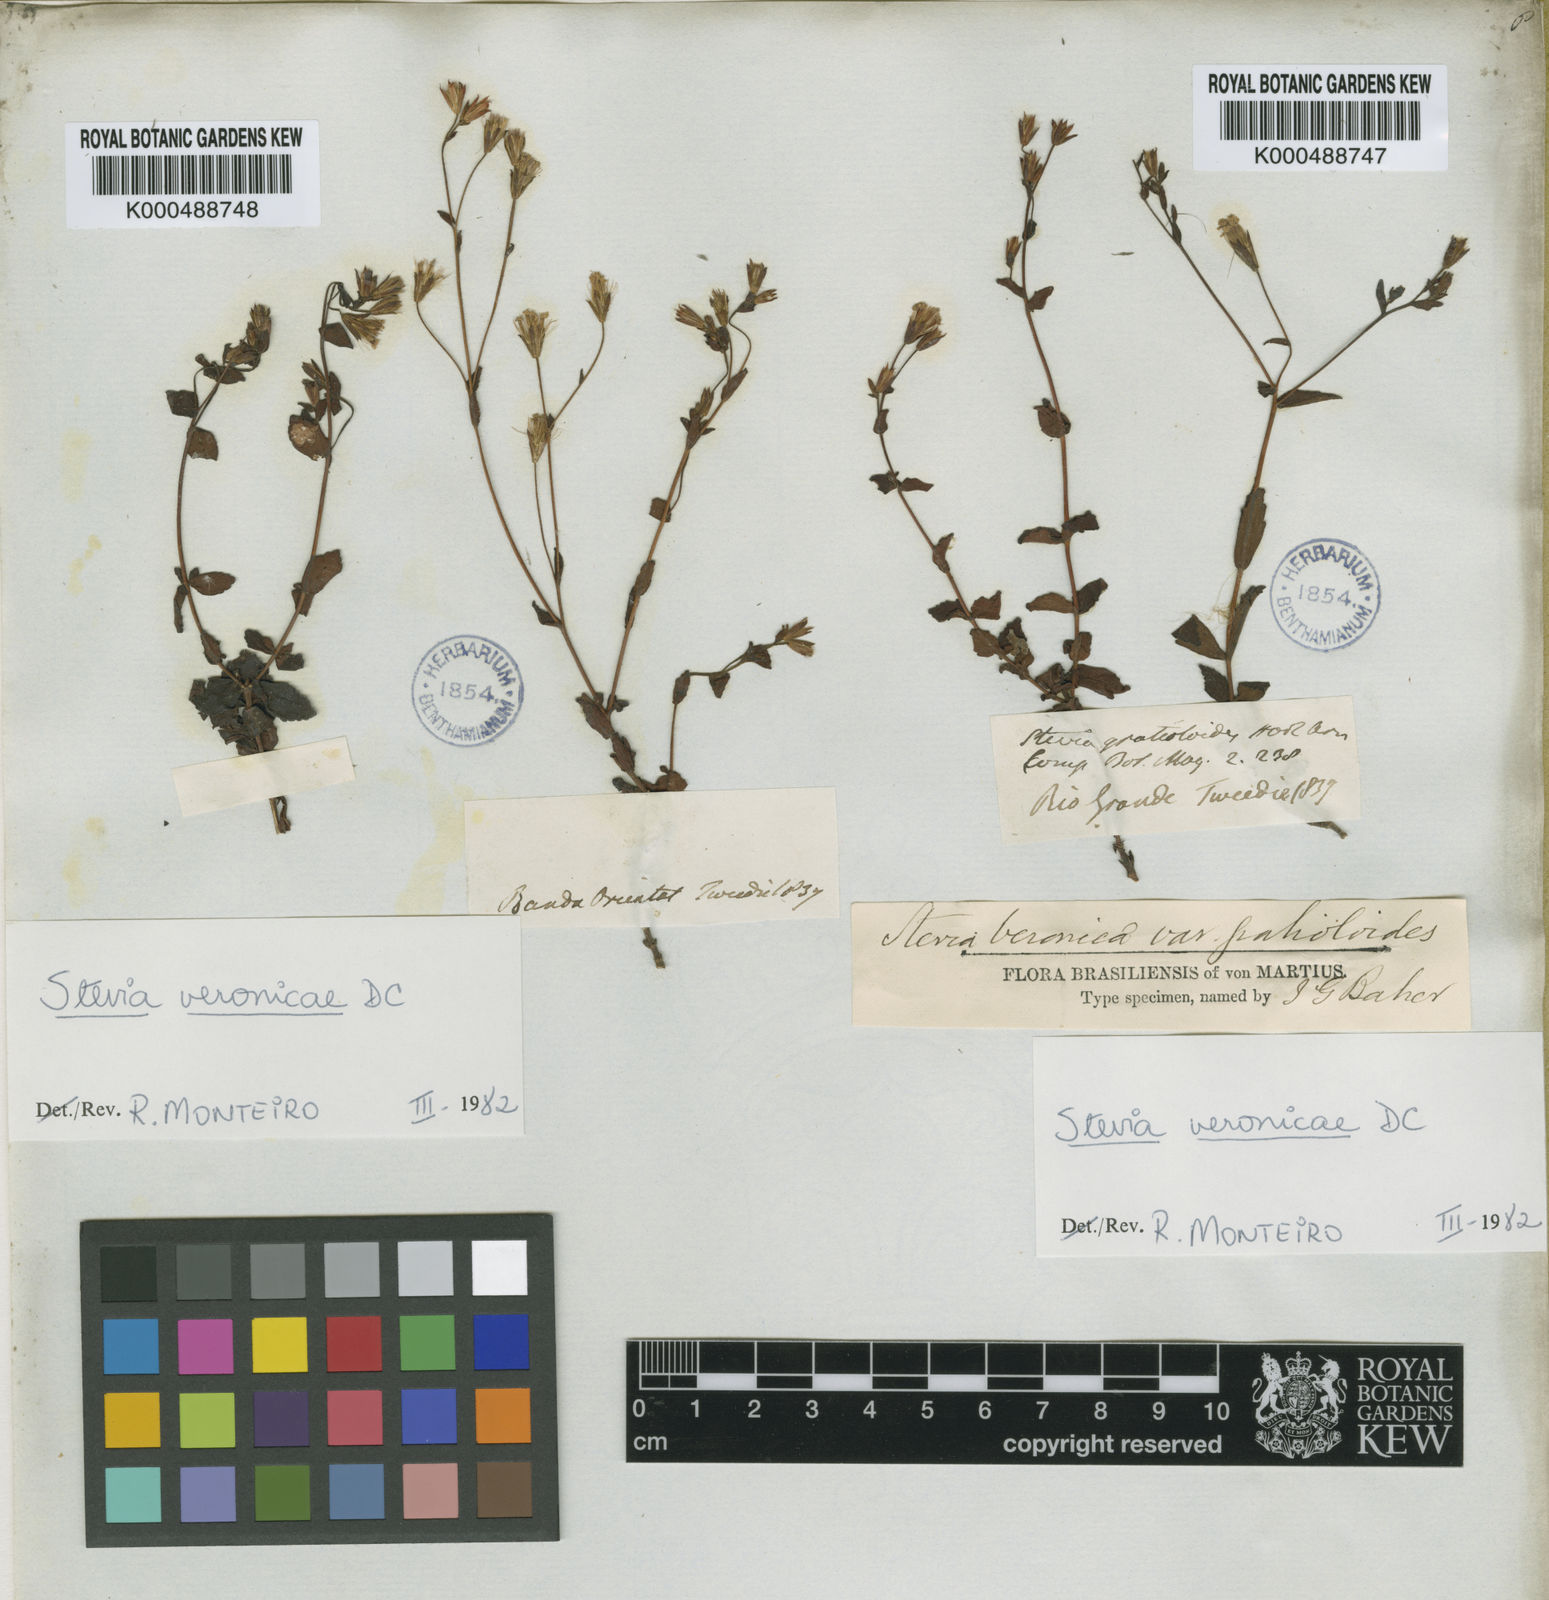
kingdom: Plantae
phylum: Tracheophyta
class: Magnoliopsida
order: Asterales
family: Asteraceae
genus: Stevia
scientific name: Stevia gratioloides
